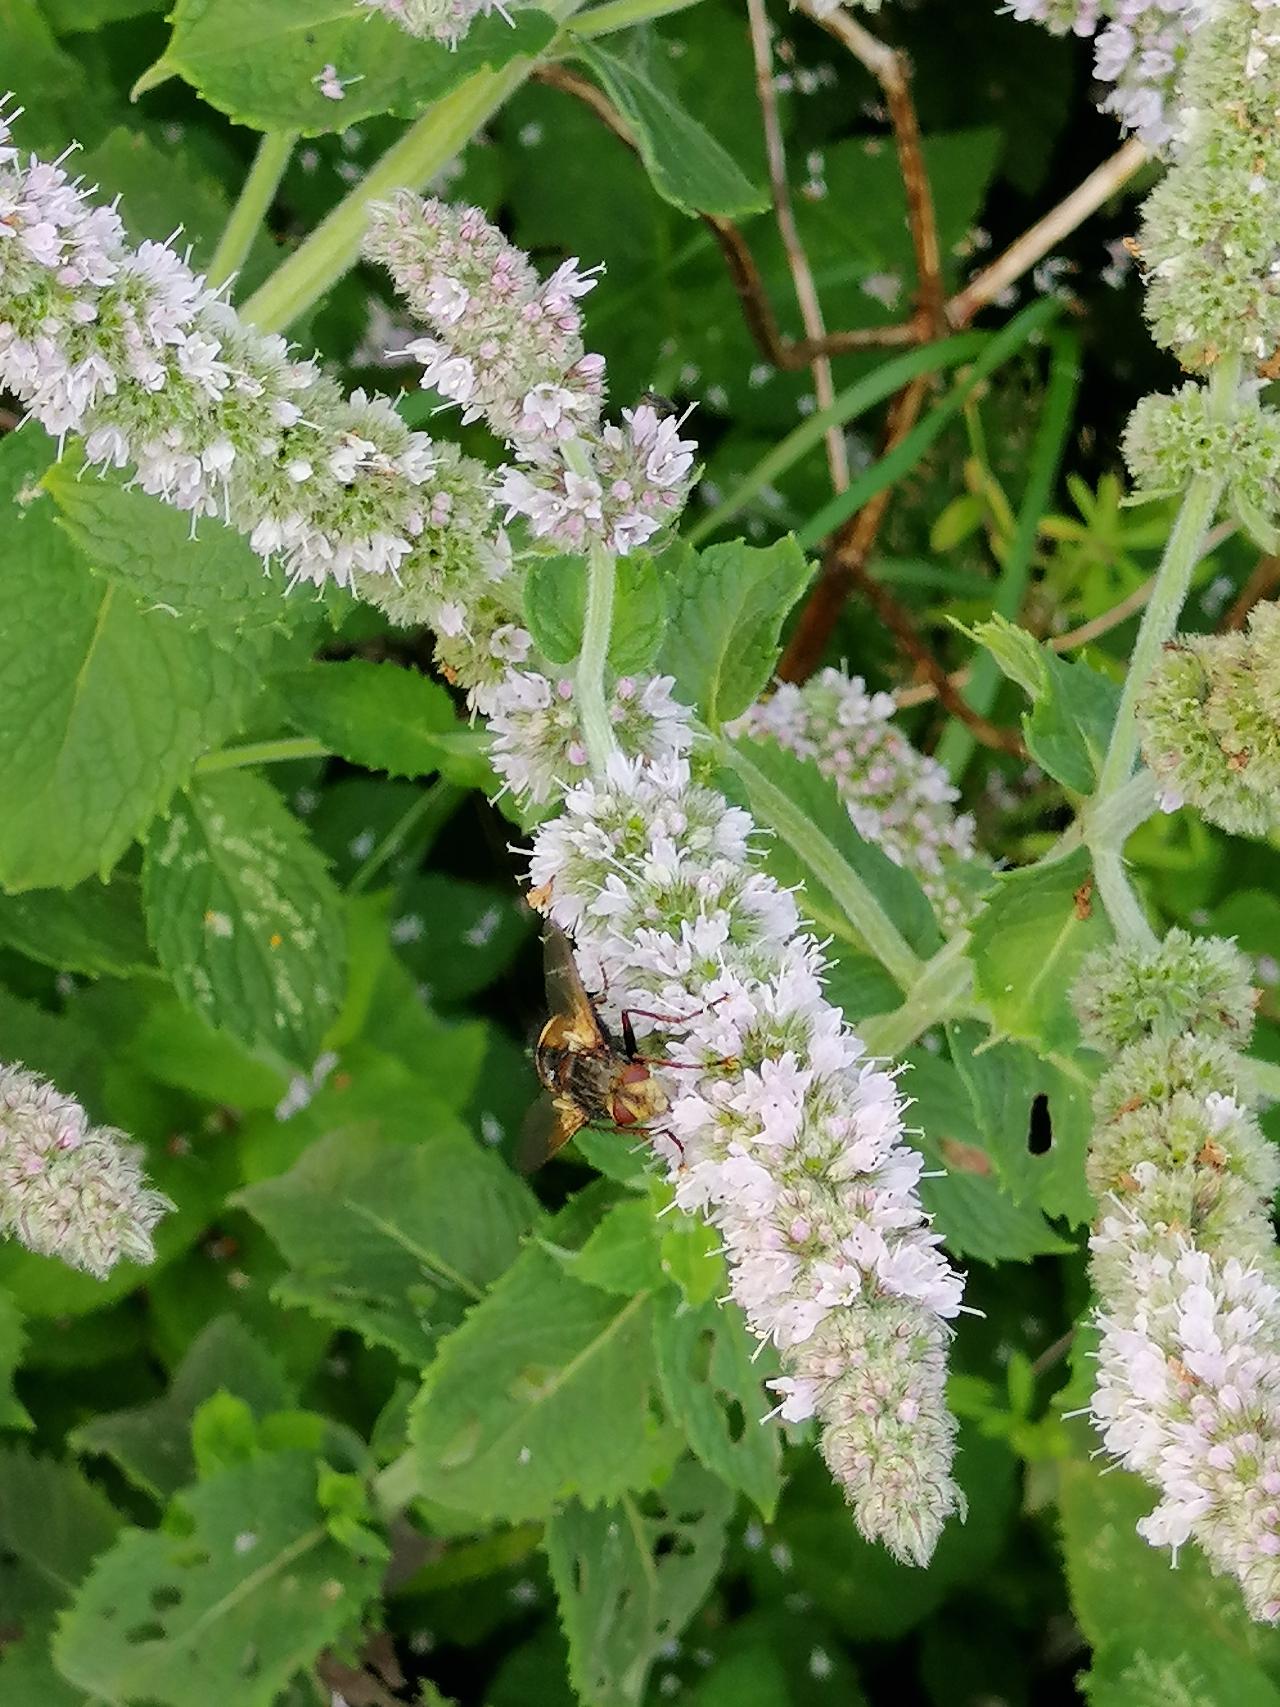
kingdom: Animalia
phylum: Arthropoda
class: Insecta
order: Diptera
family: Tachinidae
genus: Tachina
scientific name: Tachina fera
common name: Mellemfluen oskar
